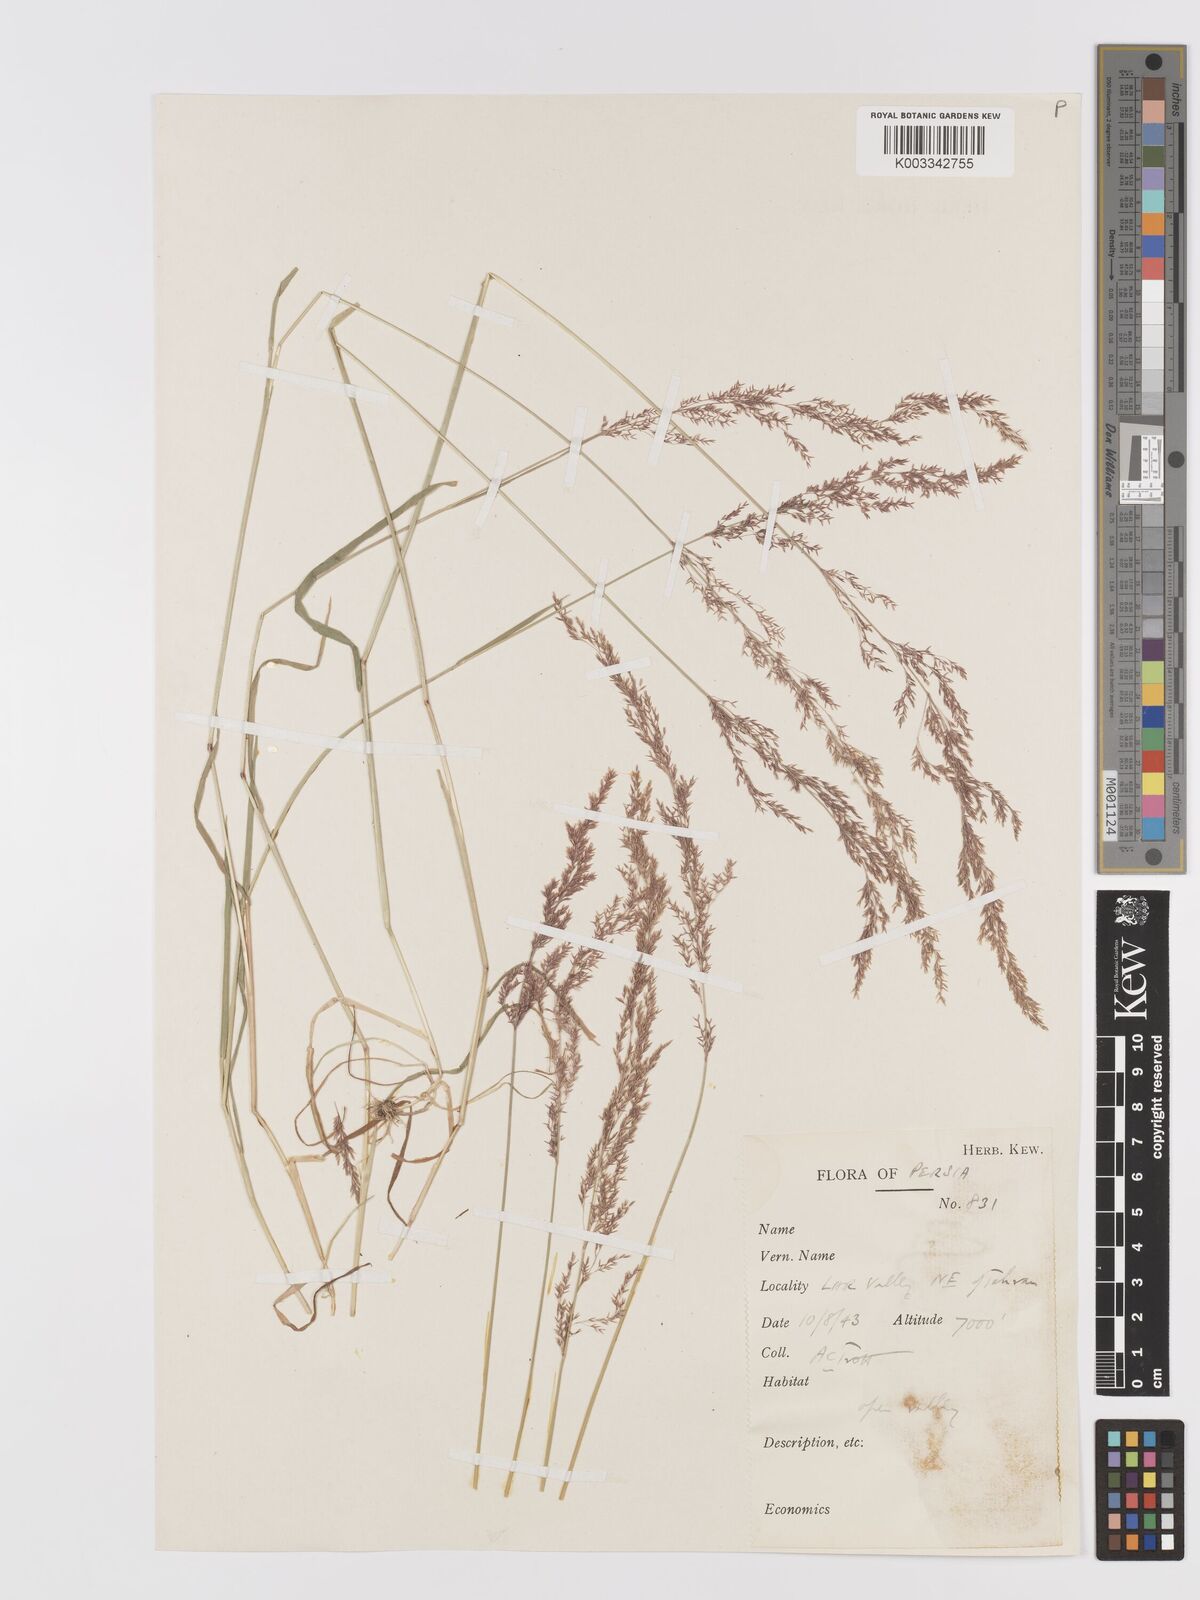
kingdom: Plantae
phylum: Tracheophyta
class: Liliopsida
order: Poales
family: Poaceae
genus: Agrostis
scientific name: Agrostis stolonifera
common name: Creeping bentgrass
